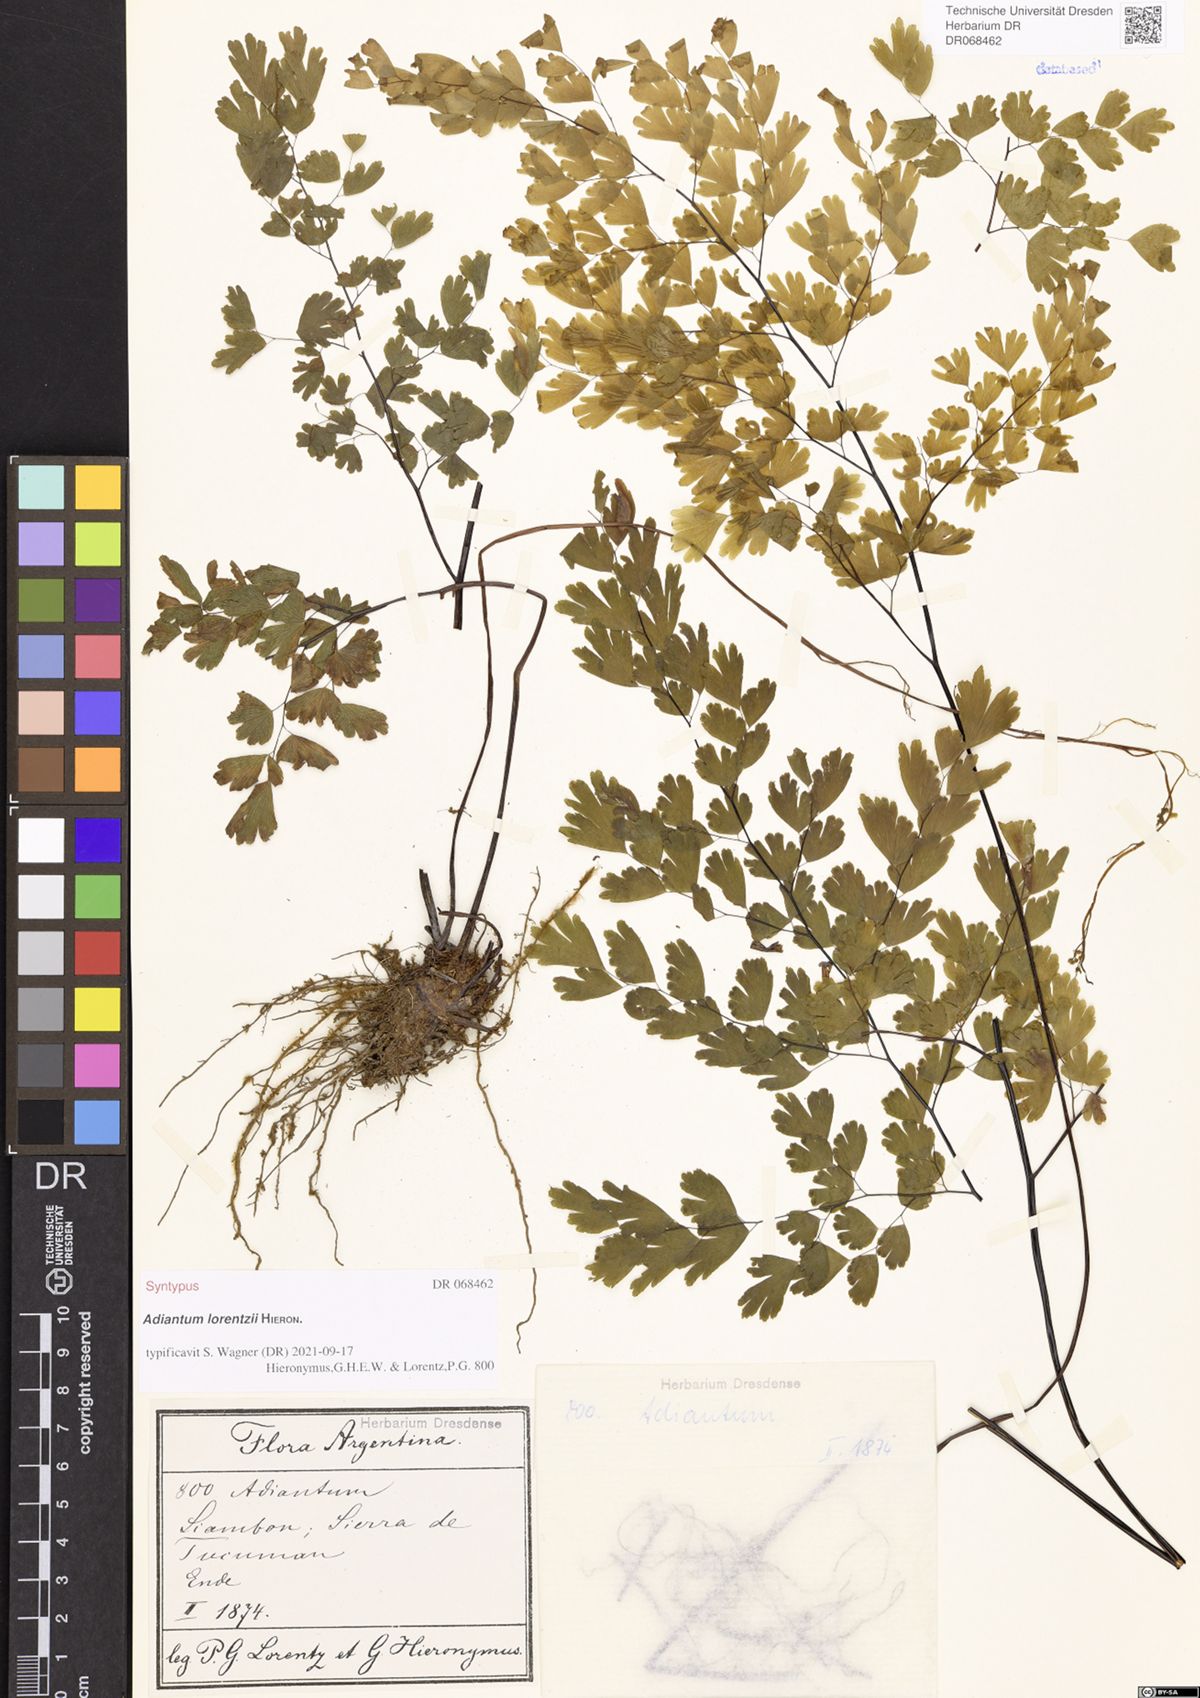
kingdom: Plantae
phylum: Tracheophyta
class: Polypodiopsida
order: Polypodiales
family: Pteridaceae
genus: Adiantum
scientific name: Adiantum lorentzii
